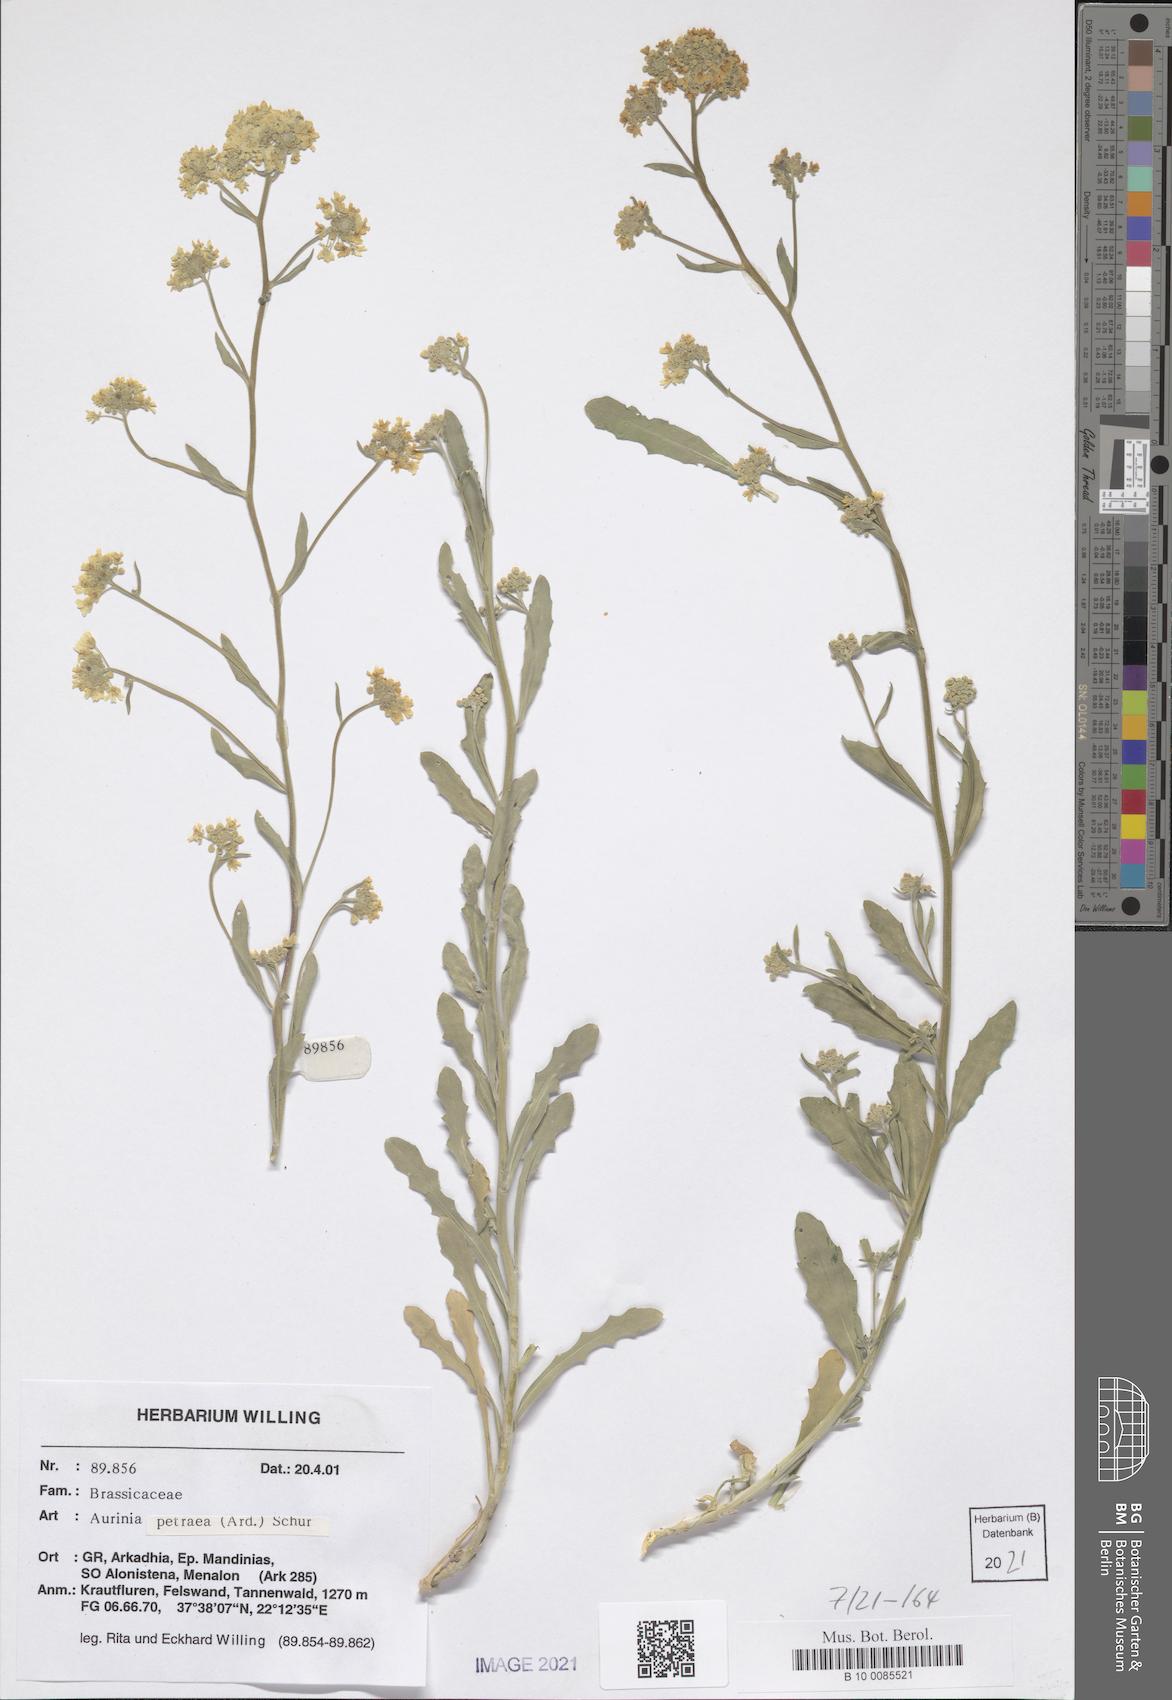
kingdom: Plantae
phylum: Tracheophyta
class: Magnoliopsida
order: Brassicales
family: Brassicaceae
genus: Aurinia
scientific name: Aurinia petraea
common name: Goldentuft
